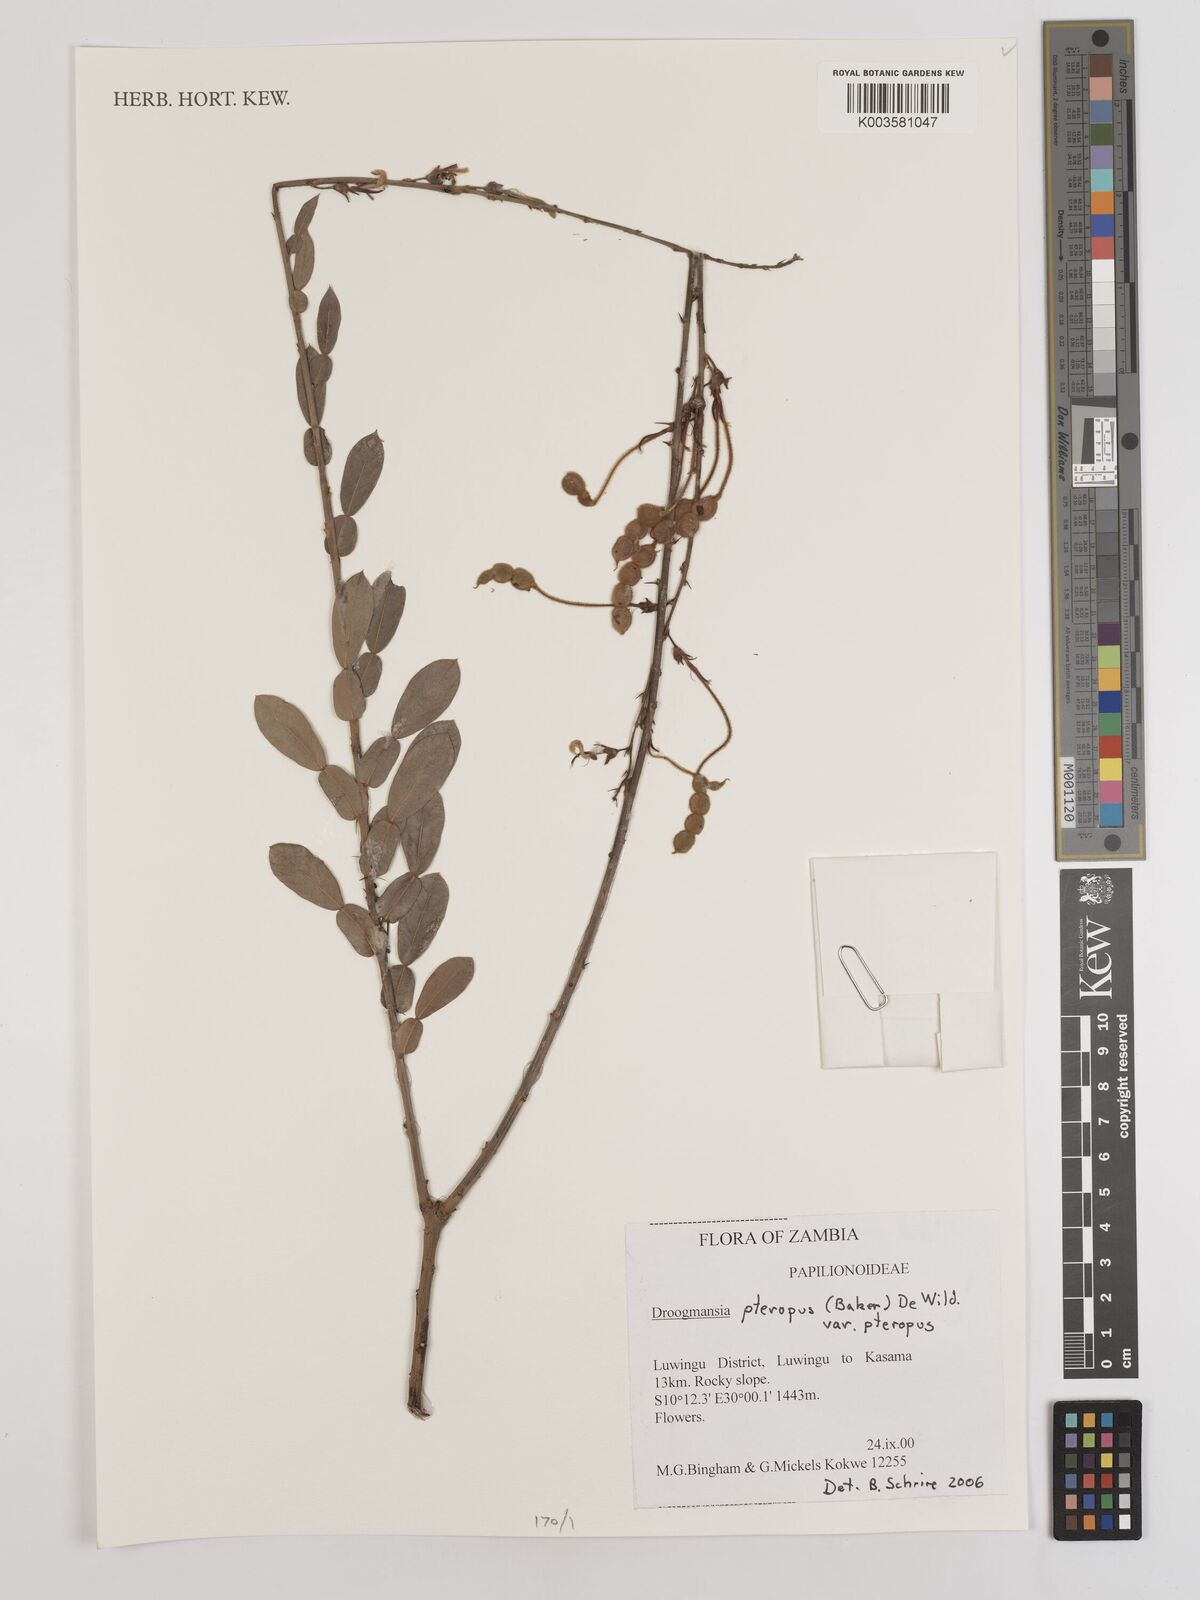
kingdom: Plantae
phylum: Tracheophyta
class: Magnoliopsida
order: Fabales
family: Fabaceae
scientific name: Fabaceae
